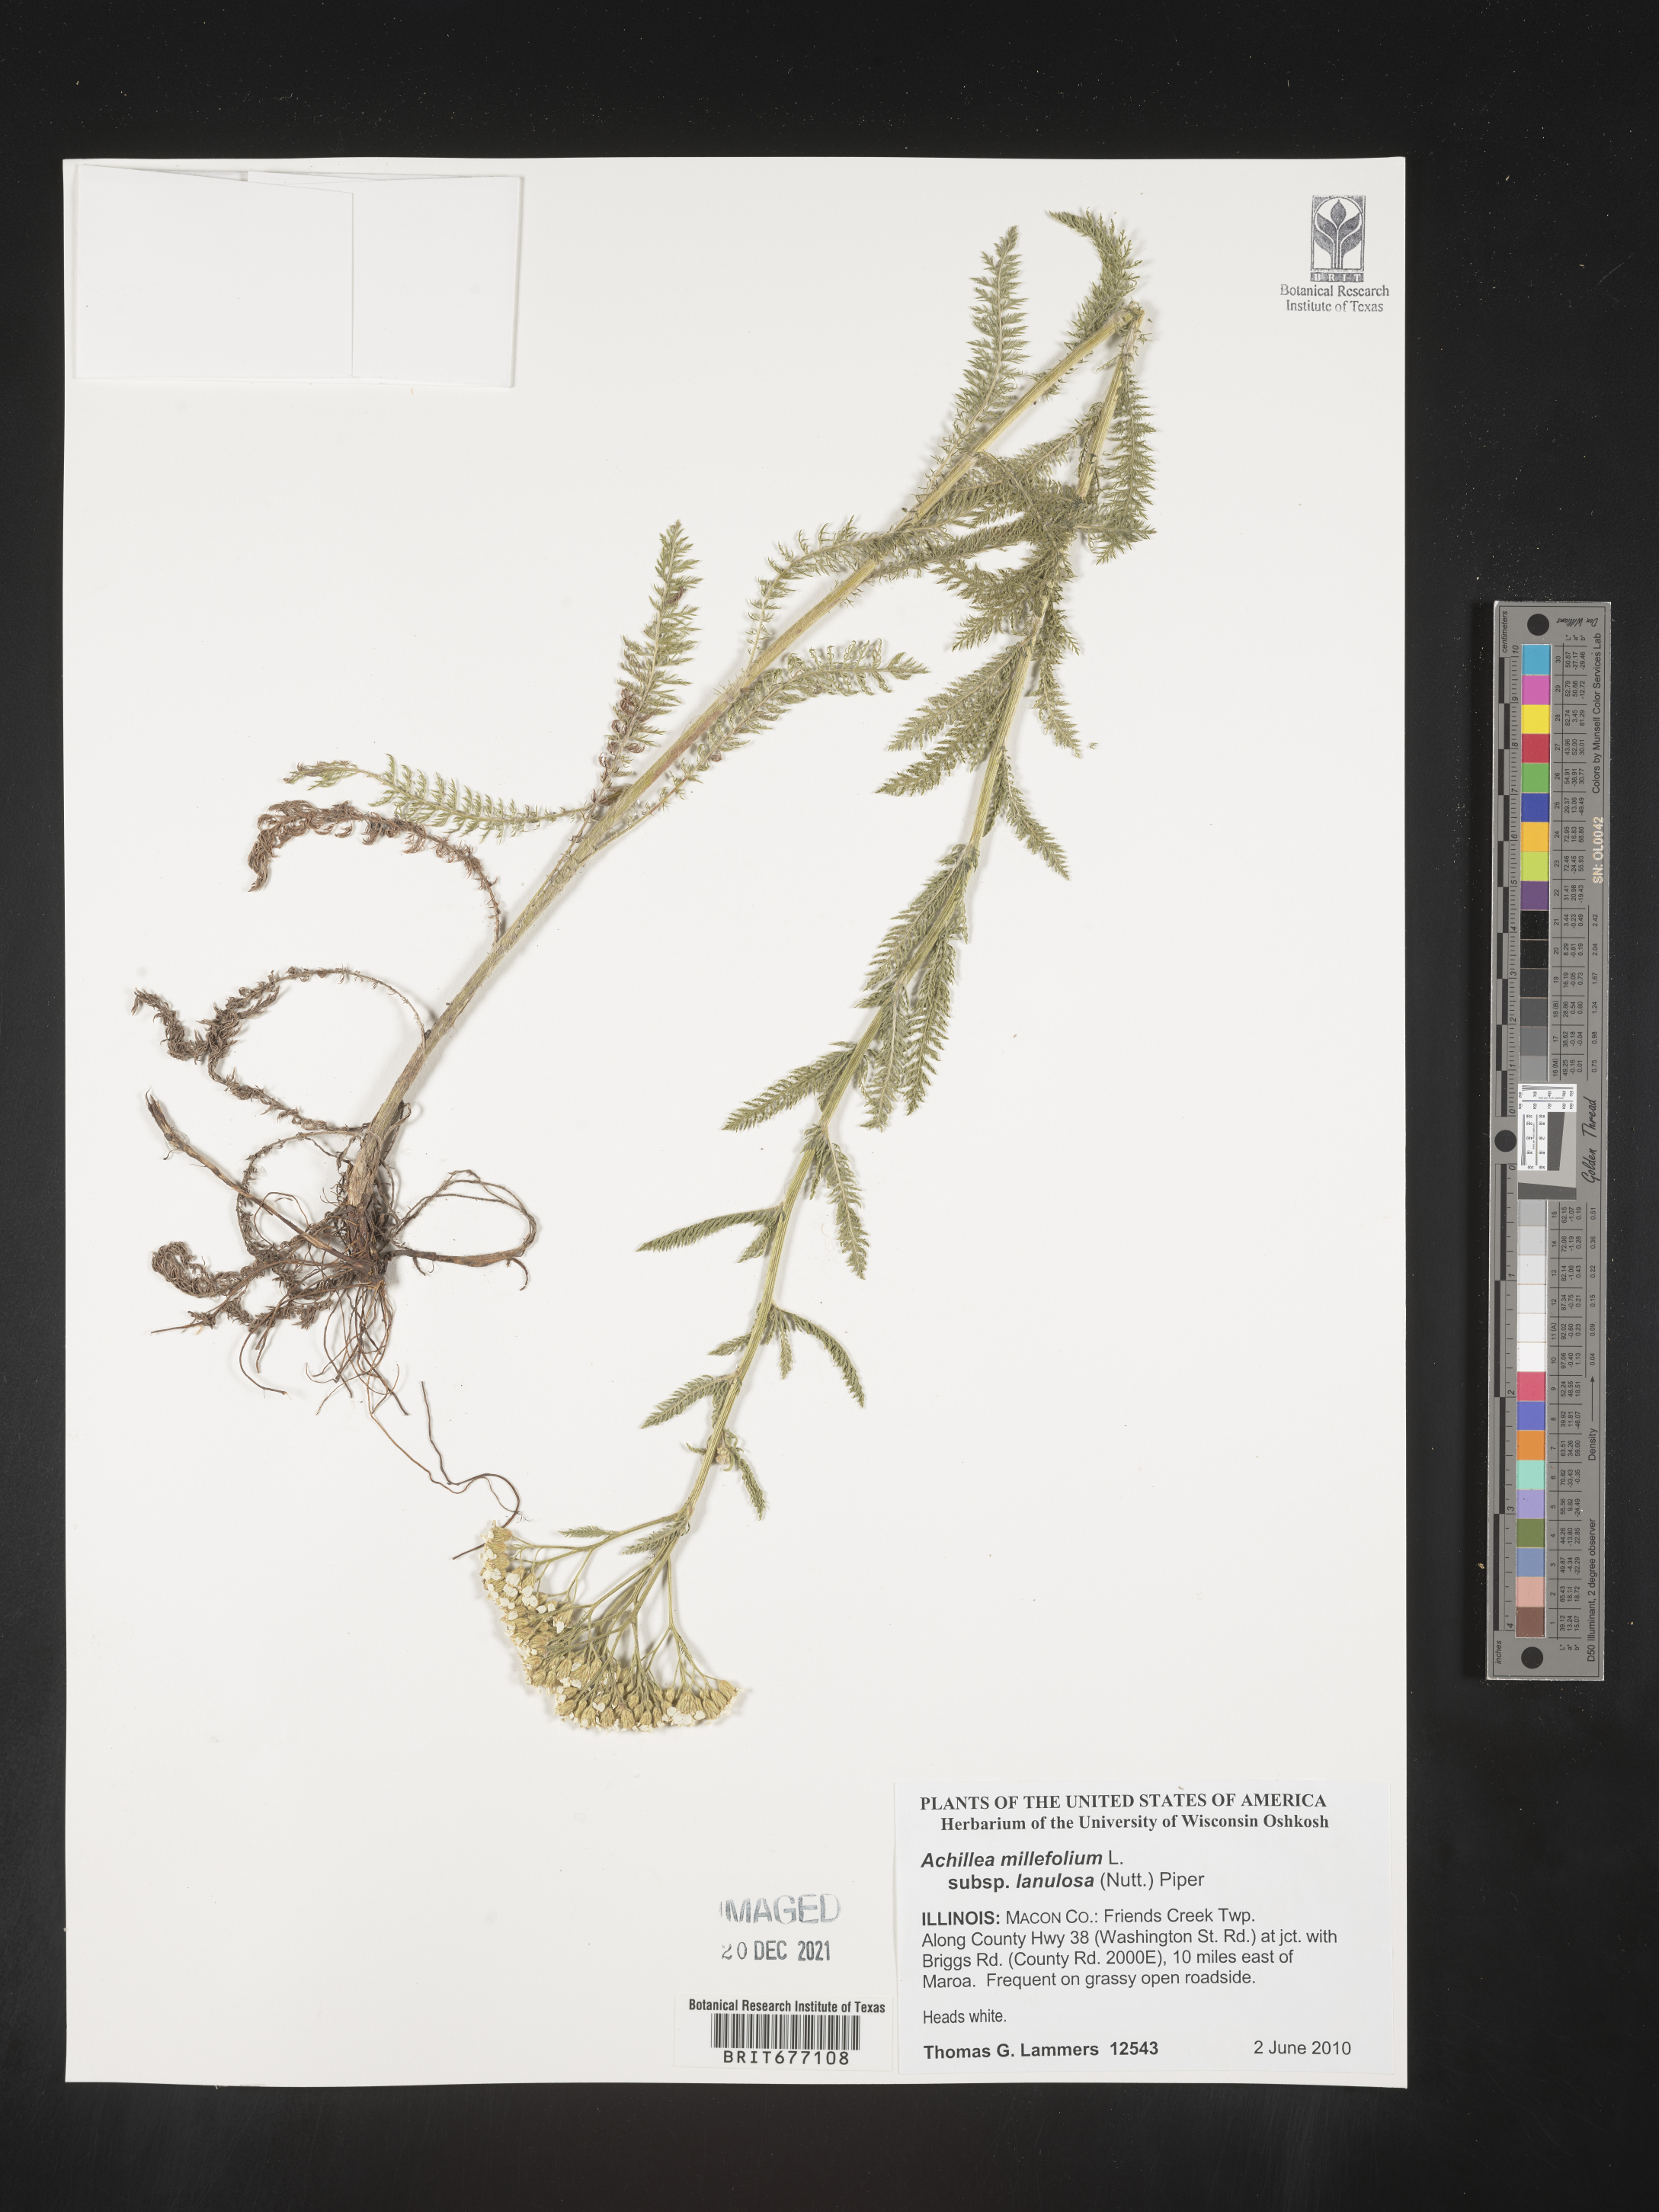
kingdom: Plantae
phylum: Tracheophyta
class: Magnoliopsida
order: Asterales
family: Asteraceae
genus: Achillea
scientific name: Achillea millefolium
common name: Yarrow
